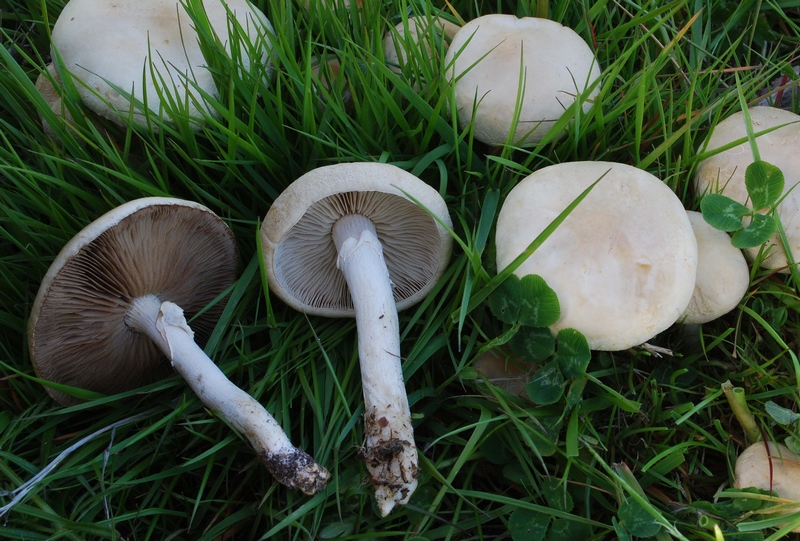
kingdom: Fungi
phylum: Basidiomycota
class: Agaricomycetes
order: Agaricales
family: Strophariaceae
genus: Agrocybe
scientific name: Agrocybe praecox
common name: tidlig agerhat
